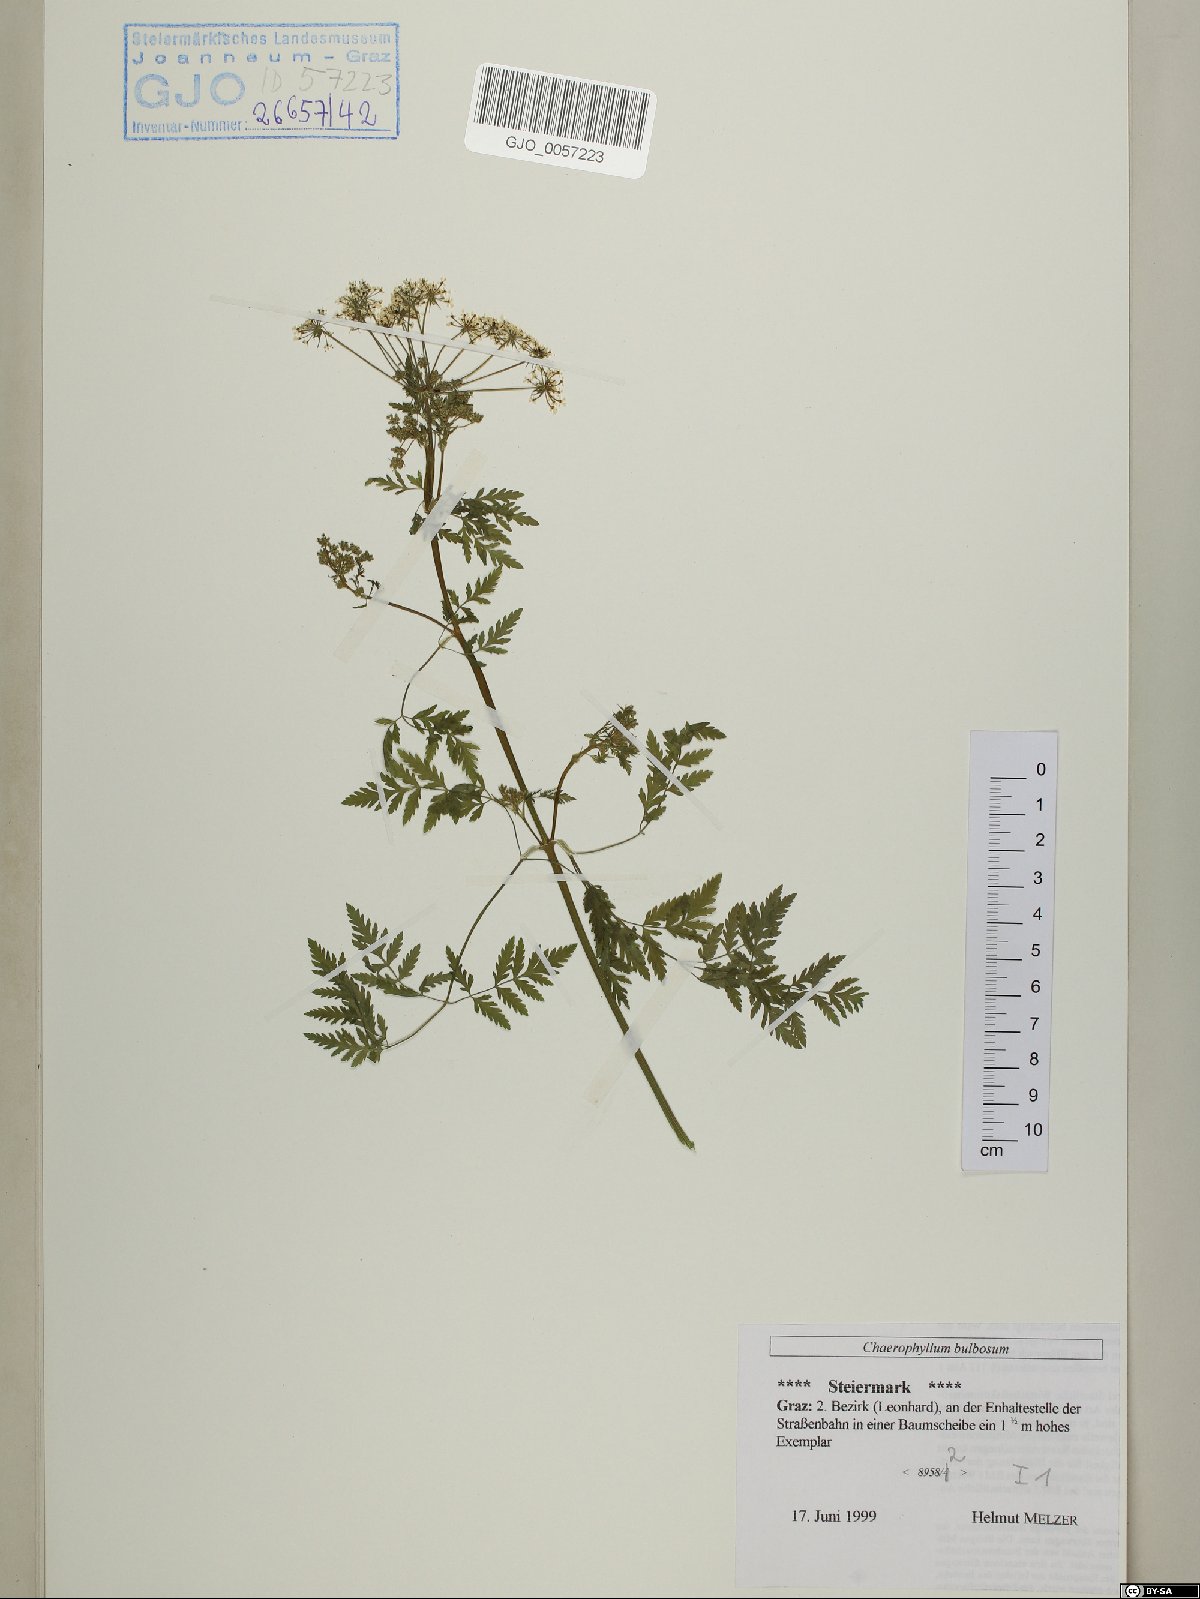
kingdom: Plantae
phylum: Tracheophyta
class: Magnoliopsida
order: Apiales
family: Apiaceae
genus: Chaerophyllum
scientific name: Chaerophyllum bulbosum
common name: Bulbous chervil
